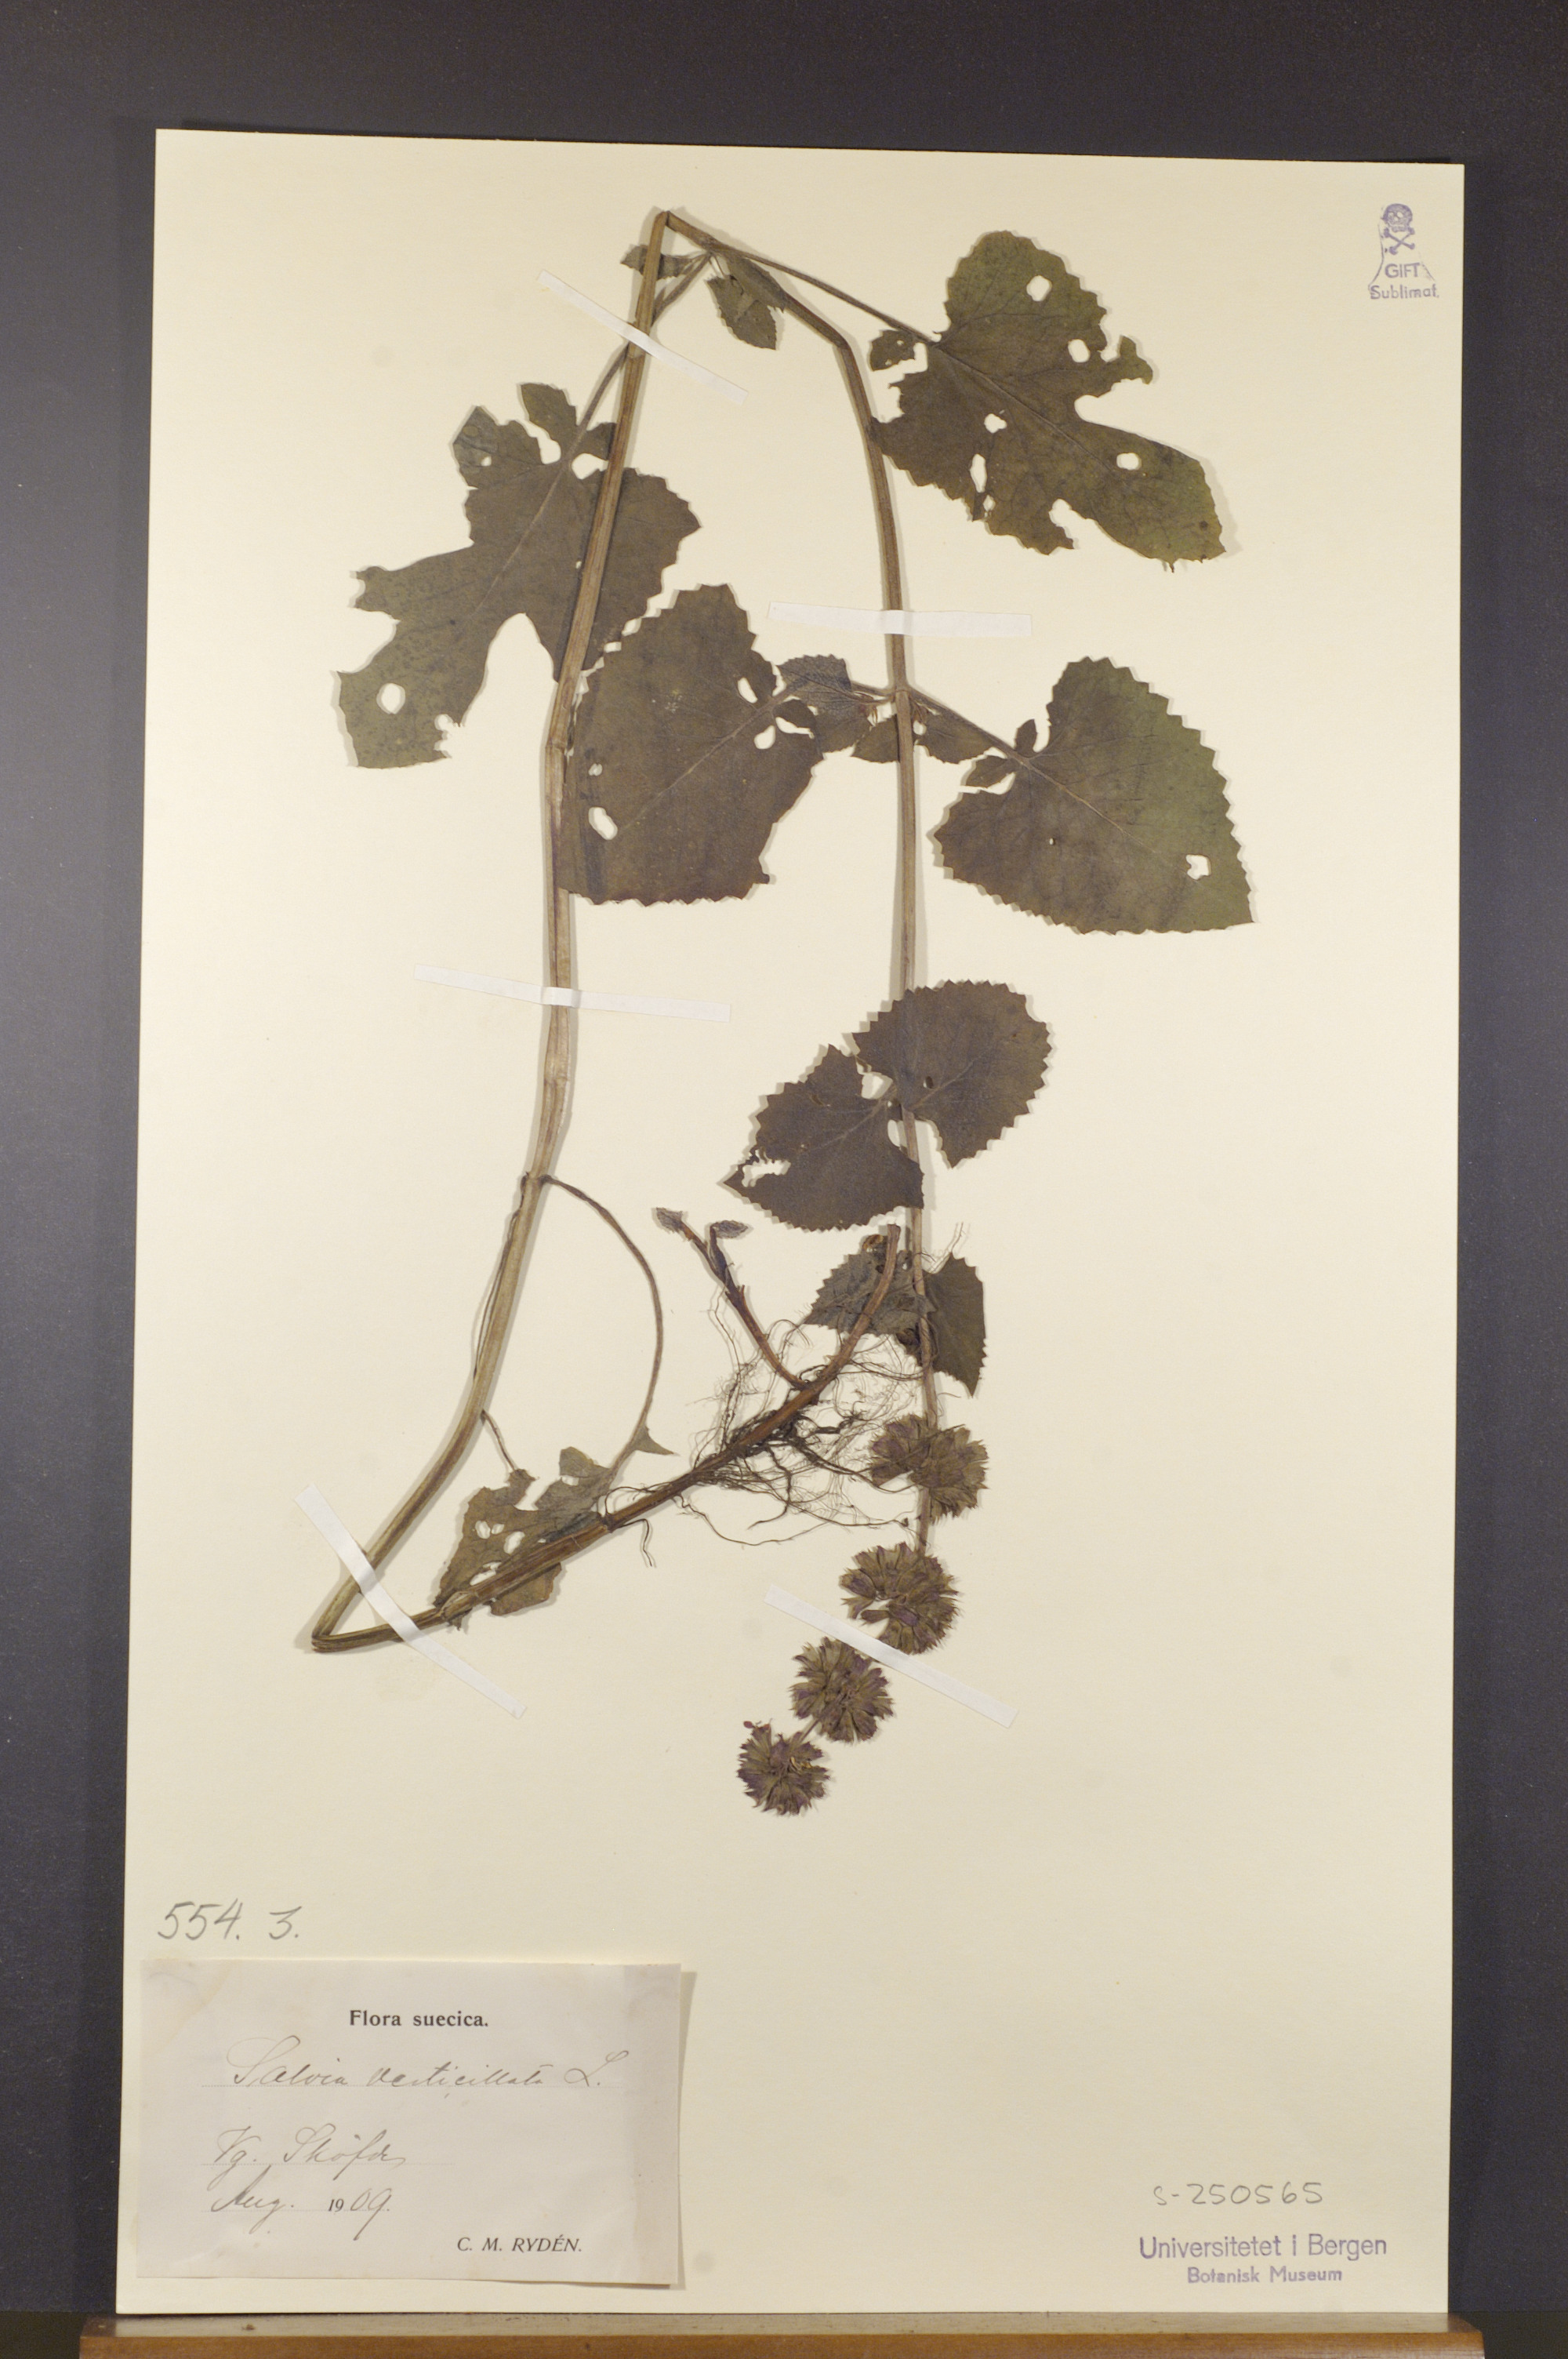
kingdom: Plantae
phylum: Tracheophyta
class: Magnoliopsida
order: Lamiales
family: Lamiaceae
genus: Salvia
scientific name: Salvia verticillata
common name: Whorled clary
